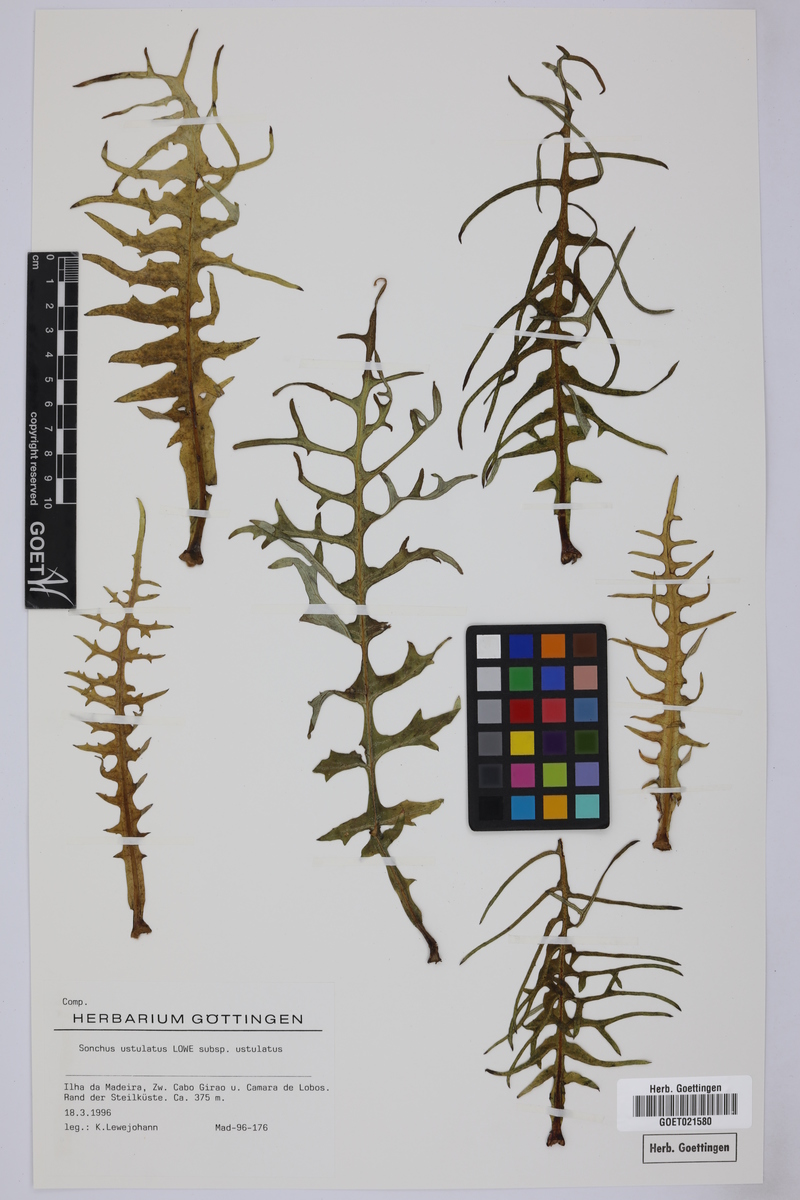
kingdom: Plantae
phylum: Tracheophyta
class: Magnoliopsida
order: Asterales
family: Asteraceae
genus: Sonchus
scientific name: Sonchus ustulatus
